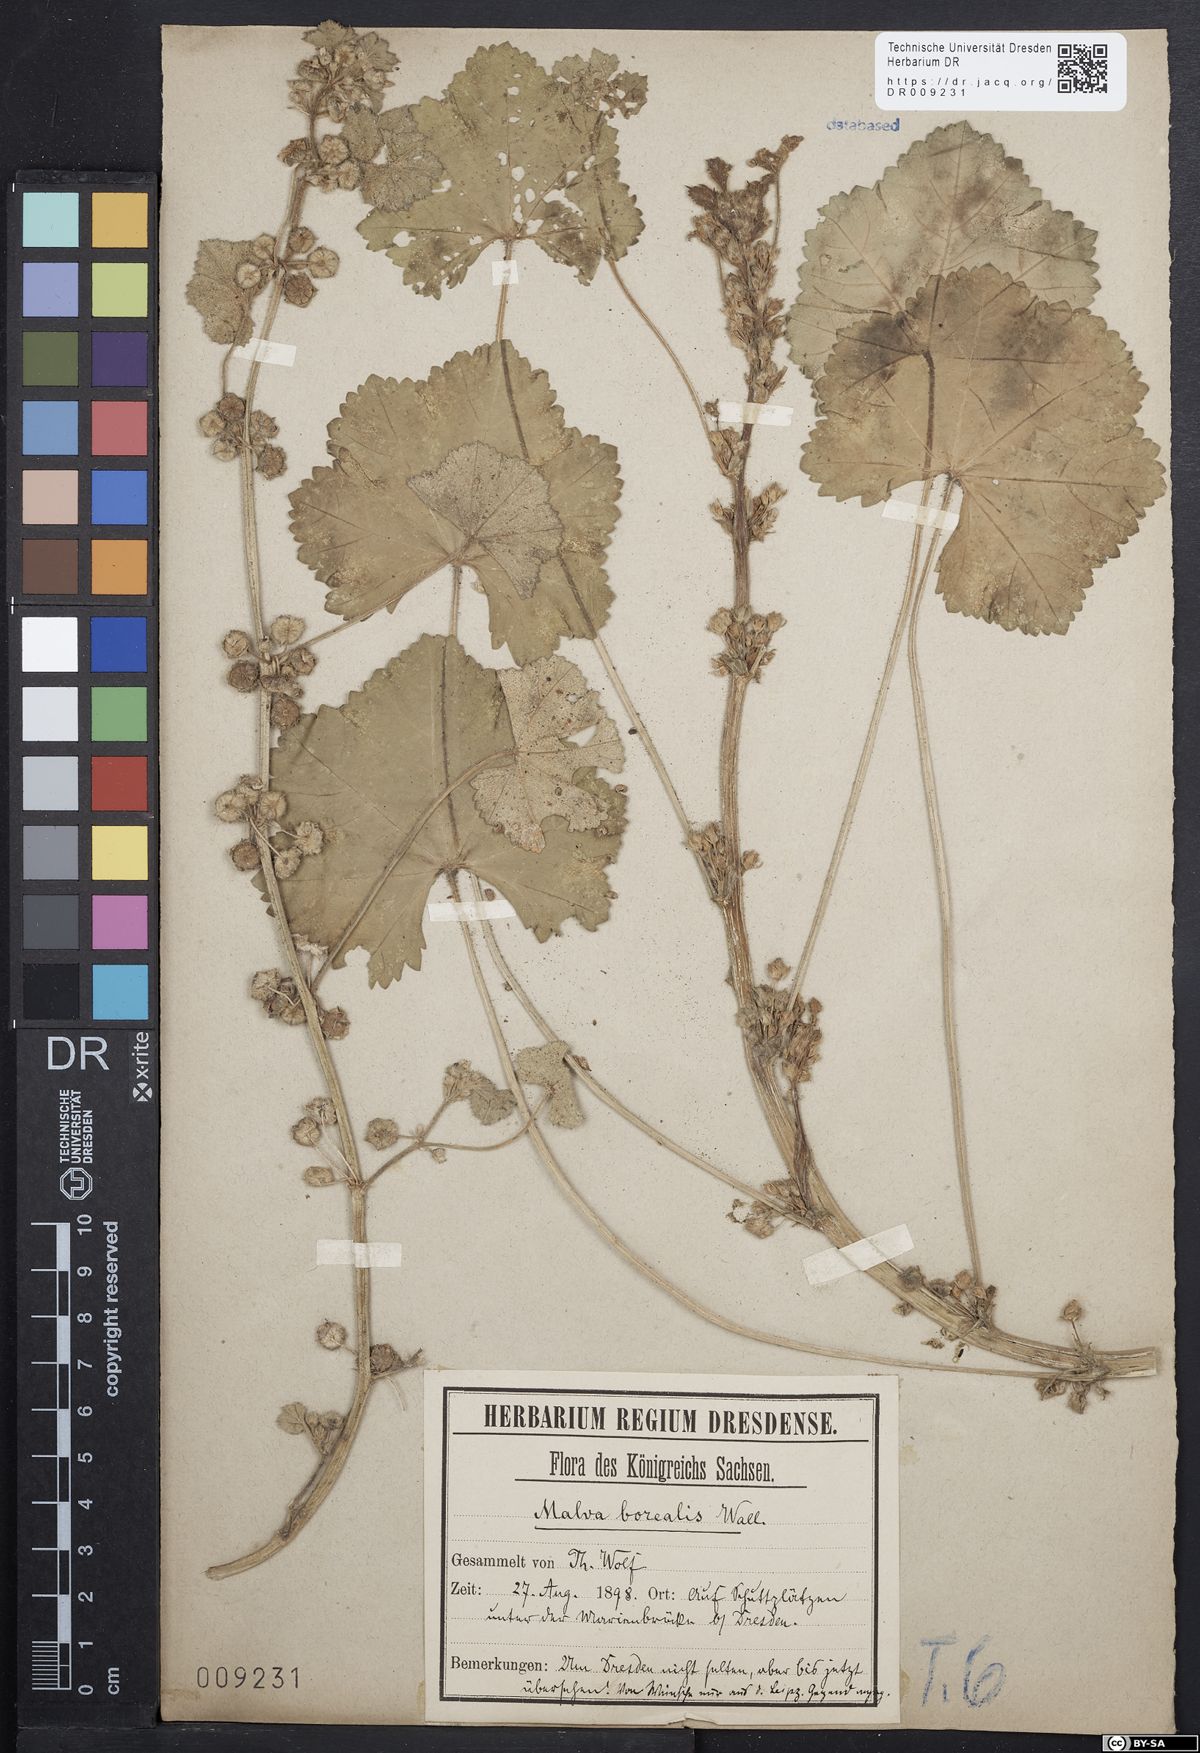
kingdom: Plantae
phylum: Tracheophyta
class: Magnoliopsida
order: Malvales
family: Malvaceae
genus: Malva
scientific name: Malva pusilla
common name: Small mallow
